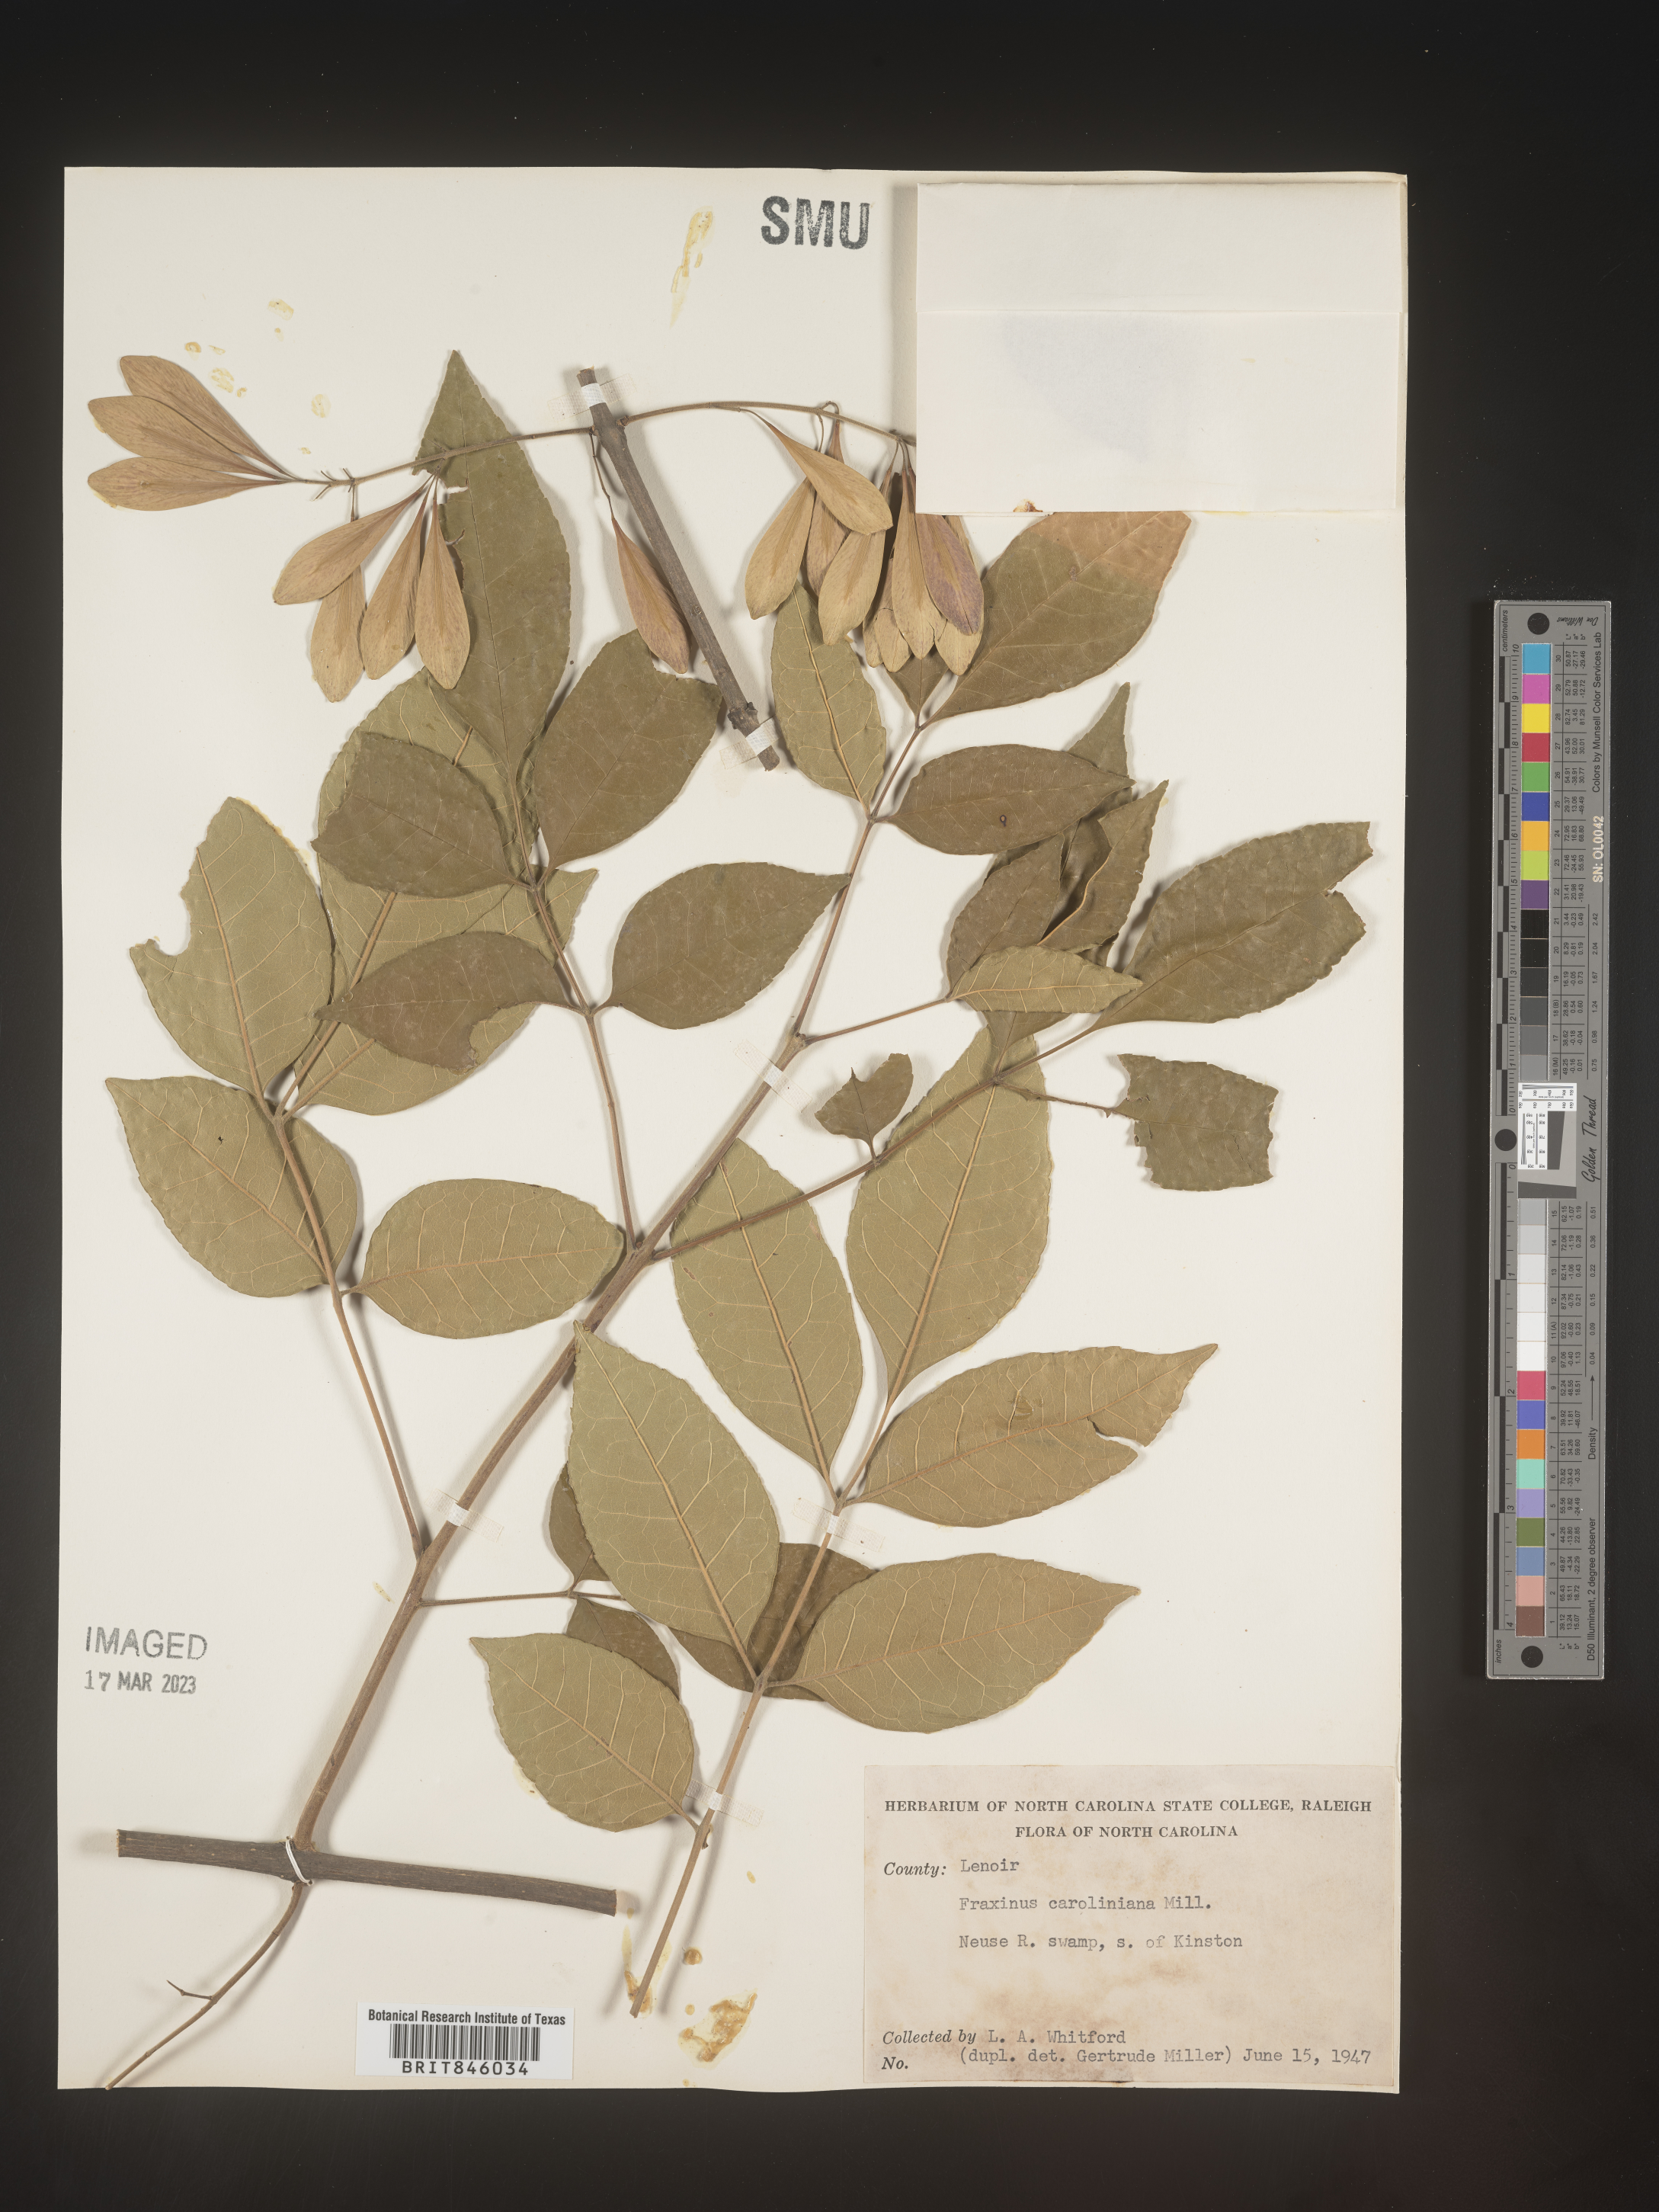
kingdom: Plantae
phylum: Tracheophyta
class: Magnoliopsida
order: Lamiales
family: Oleaceae
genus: Fraxinus
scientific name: Fraxinus caroliniana
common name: Carolina ash
